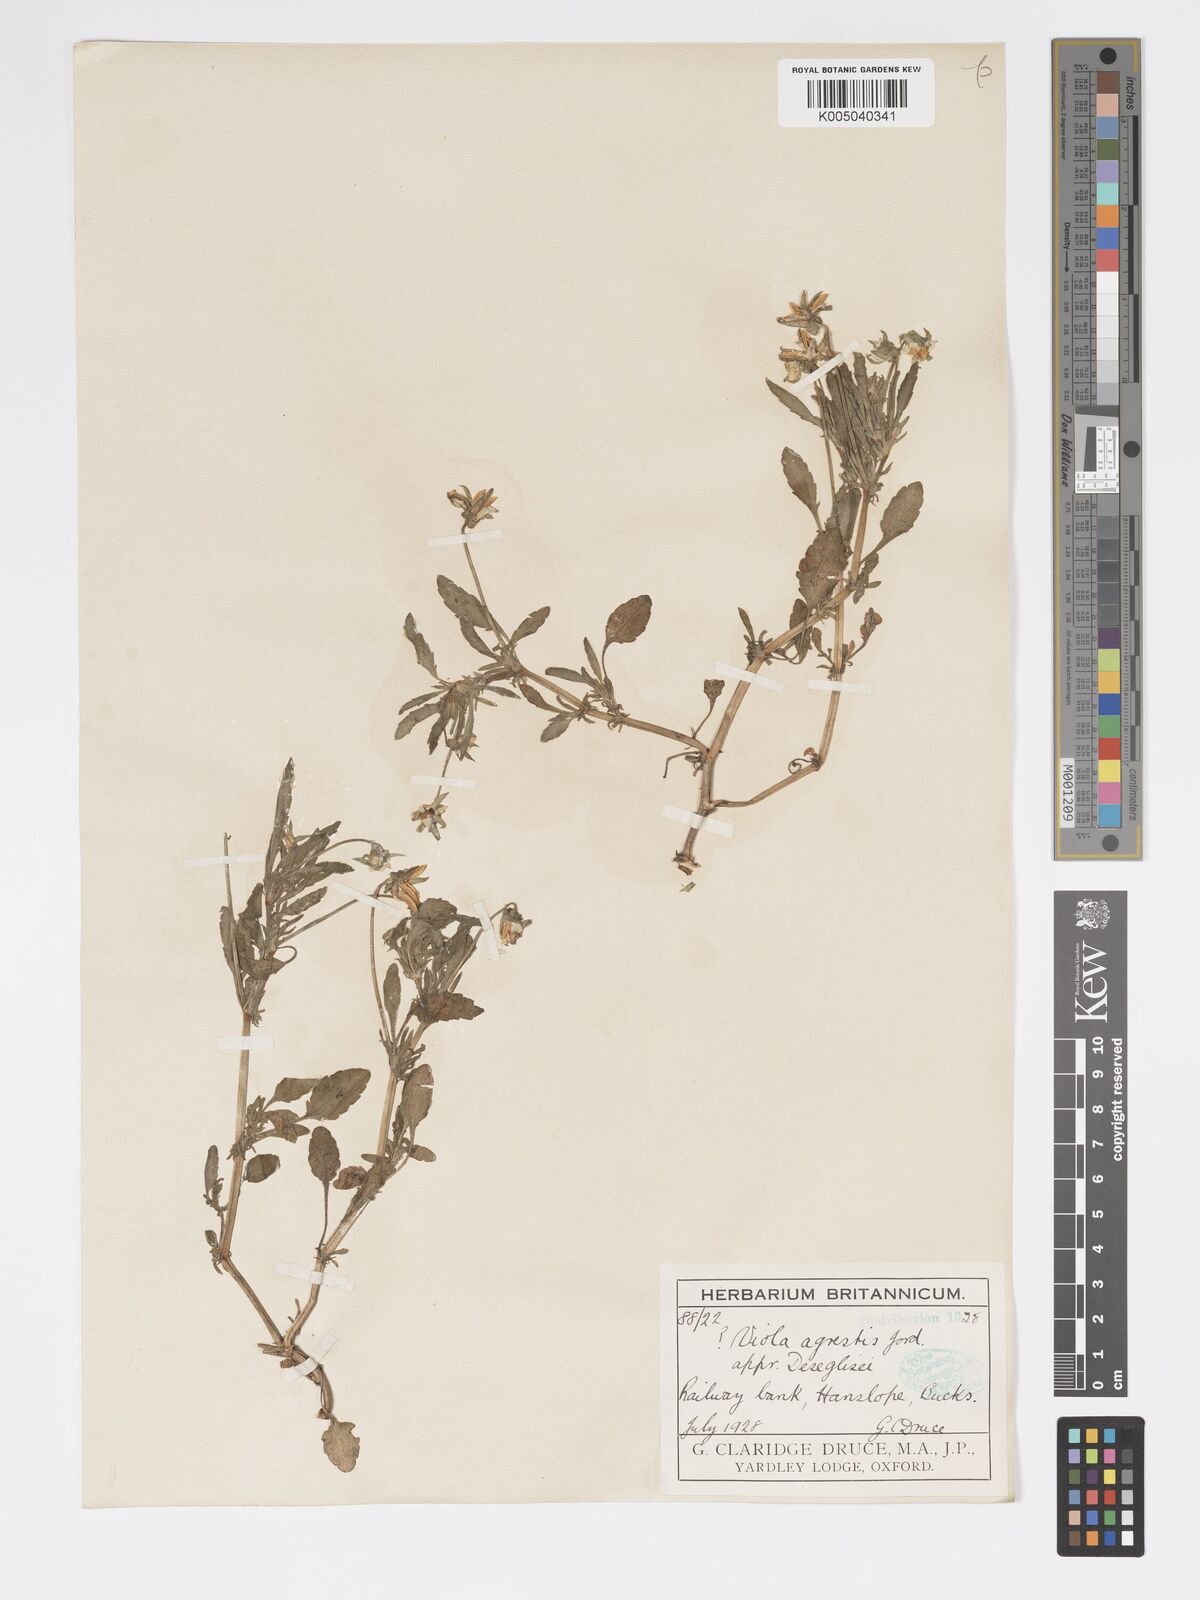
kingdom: Plantae
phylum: Tracheophyta
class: Magnoliopsida
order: Malpighiales
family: Violaceae
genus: Viola
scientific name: Viola arvensis
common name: Field pansy
